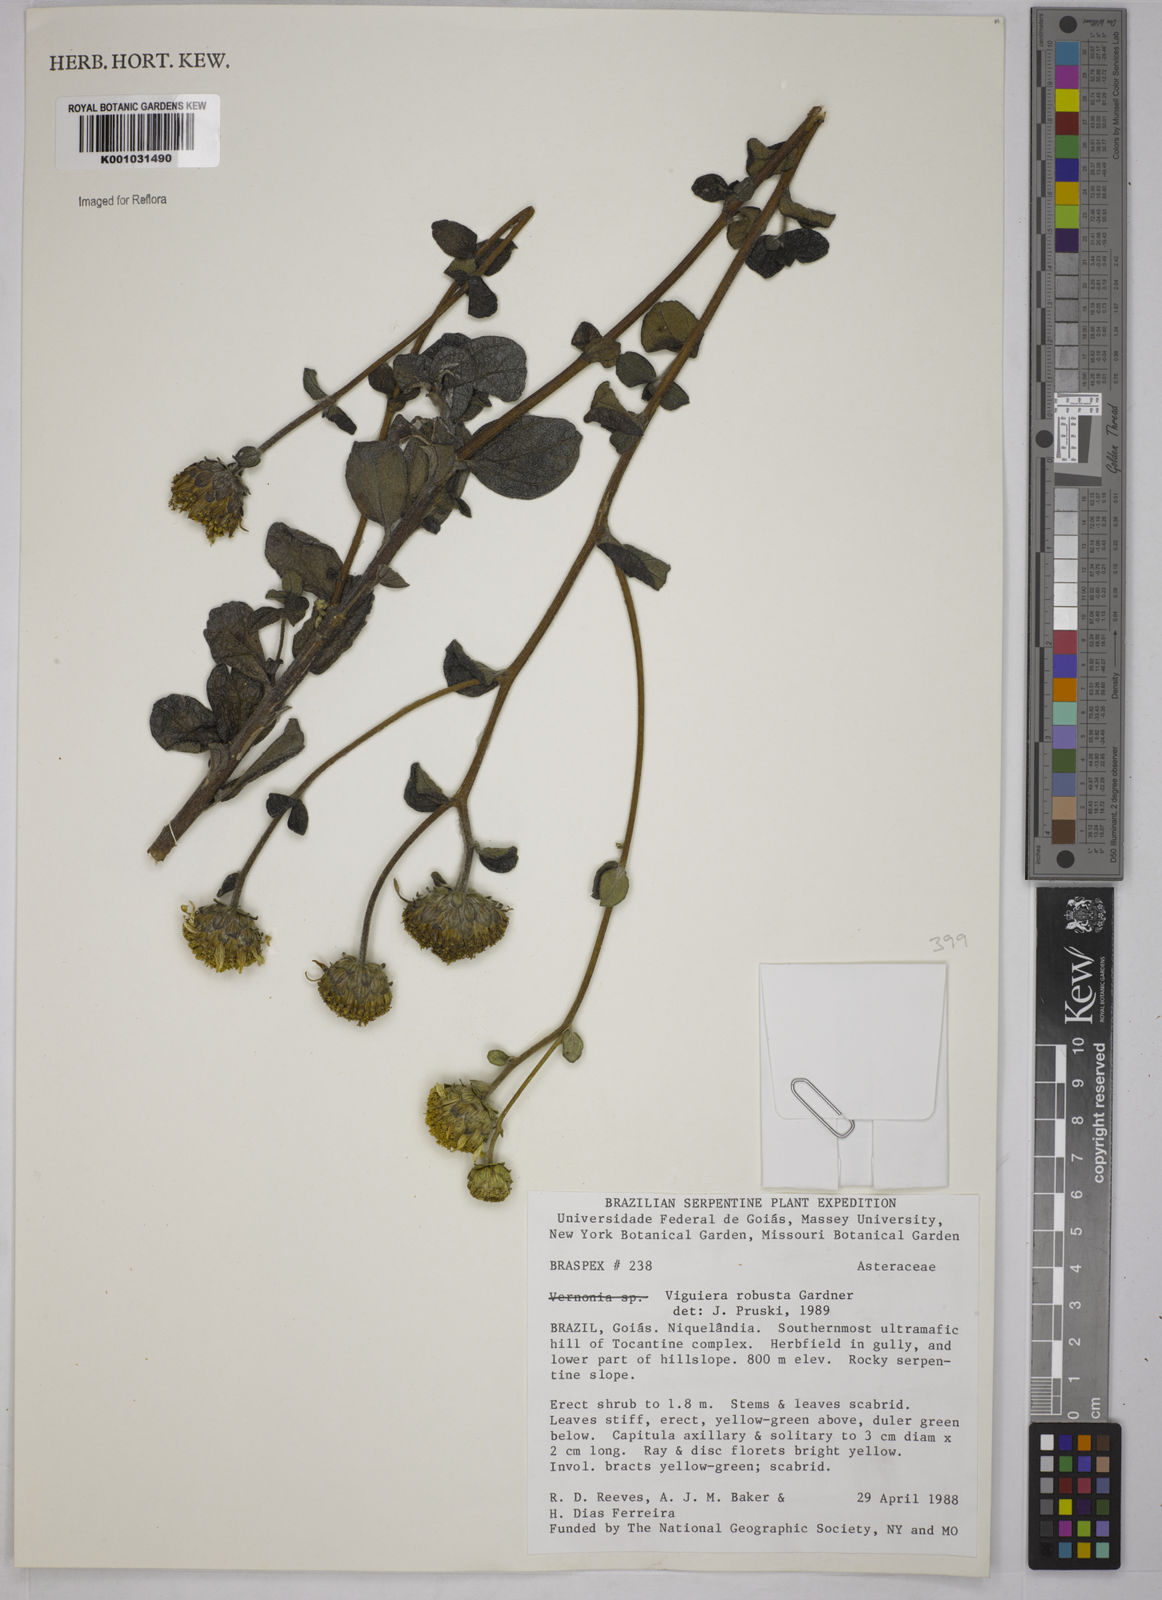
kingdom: Plantae
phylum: Tracheophyta
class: Magnoliopsida
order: Asterales
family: Asteraceae
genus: Aldama
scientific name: Aldama robusta
